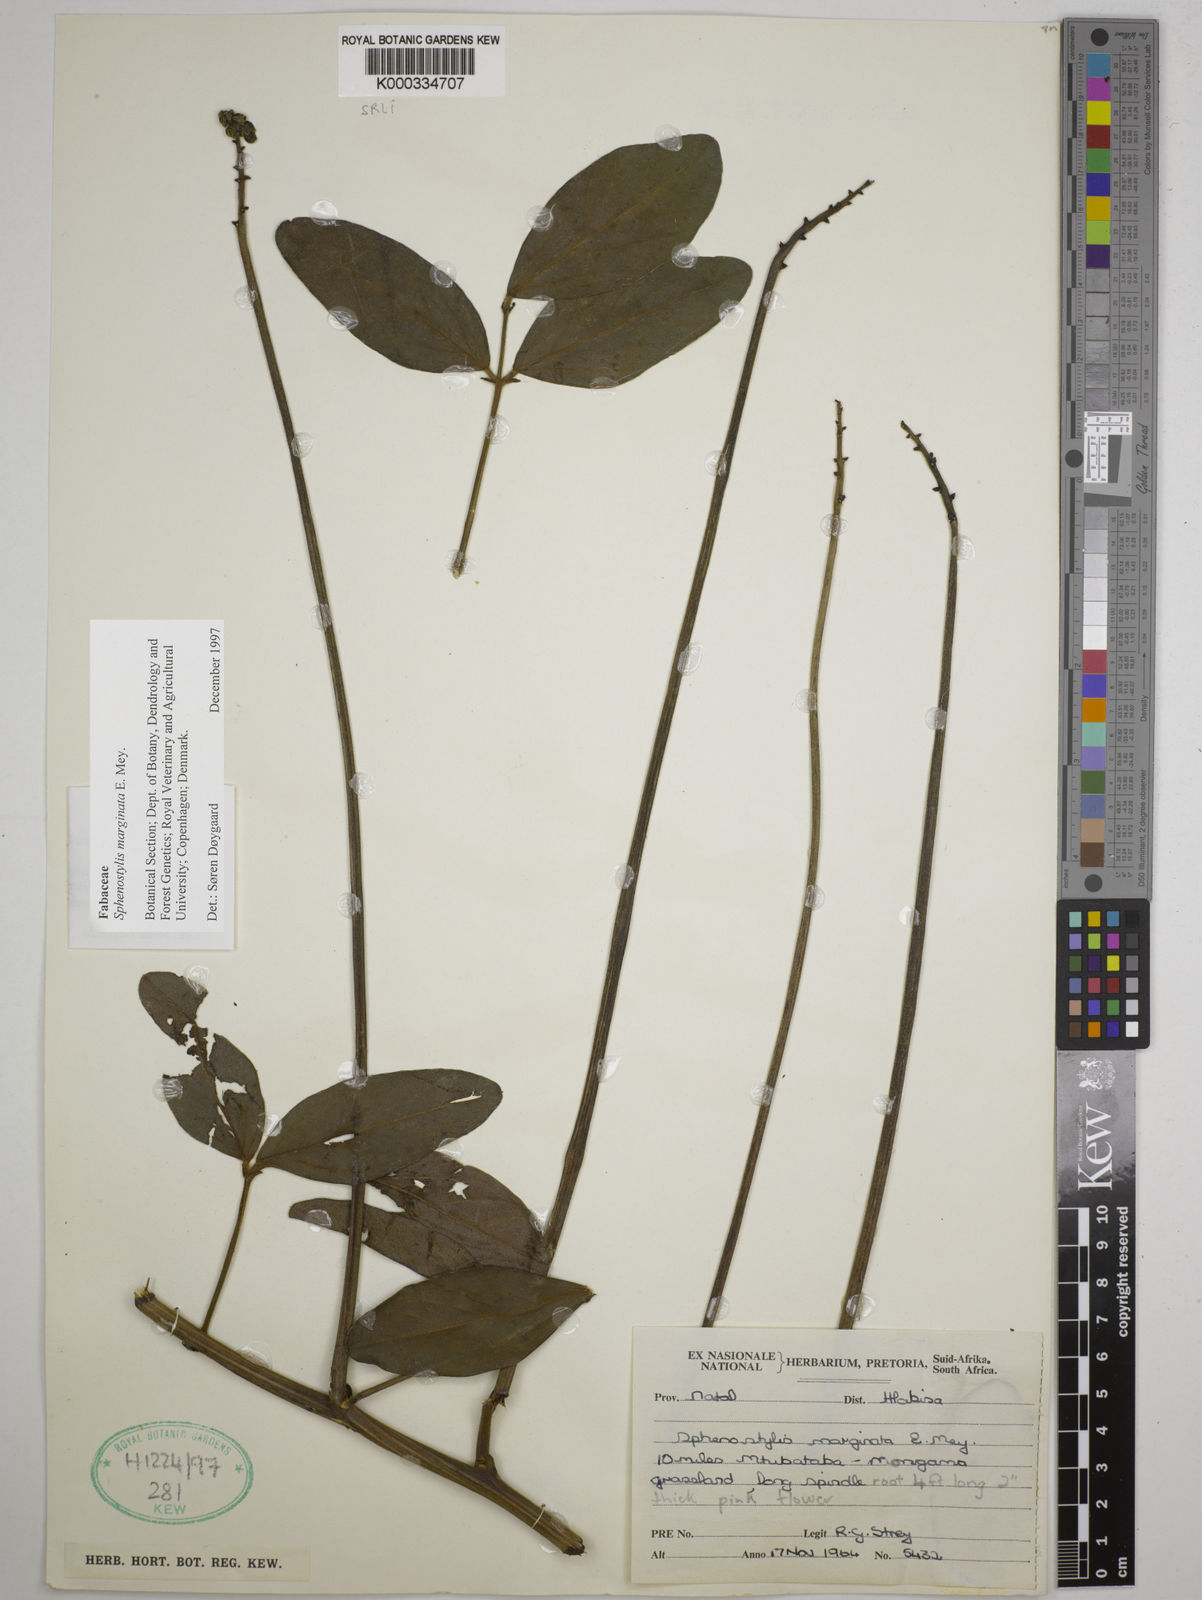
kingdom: Plantae
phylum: Tracheophyta
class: Magnoliopsida
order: Fabales
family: Fabaceae
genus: Sphenostylis
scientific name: Sphenostylis marginata
